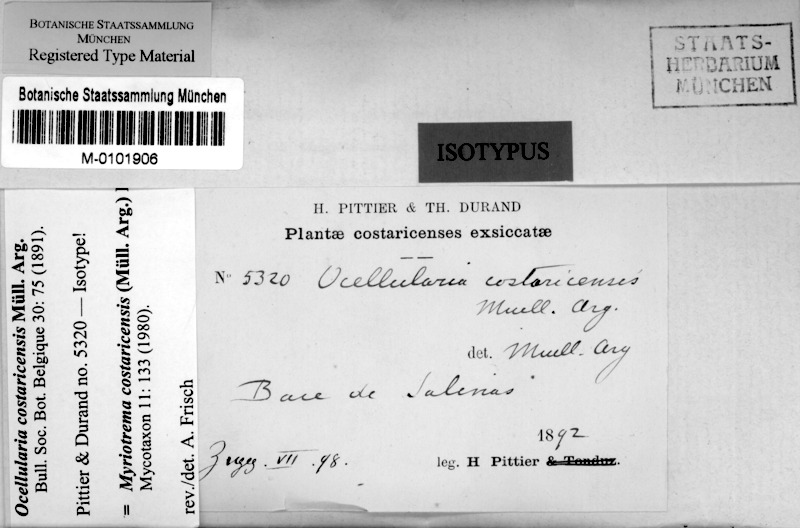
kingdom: Fungi
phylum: Ascomycota
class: Lecanoromycetes
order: Ostropales
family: Graphidaceae
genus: Glaucotrema
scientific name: Glaucotrema costaricense
